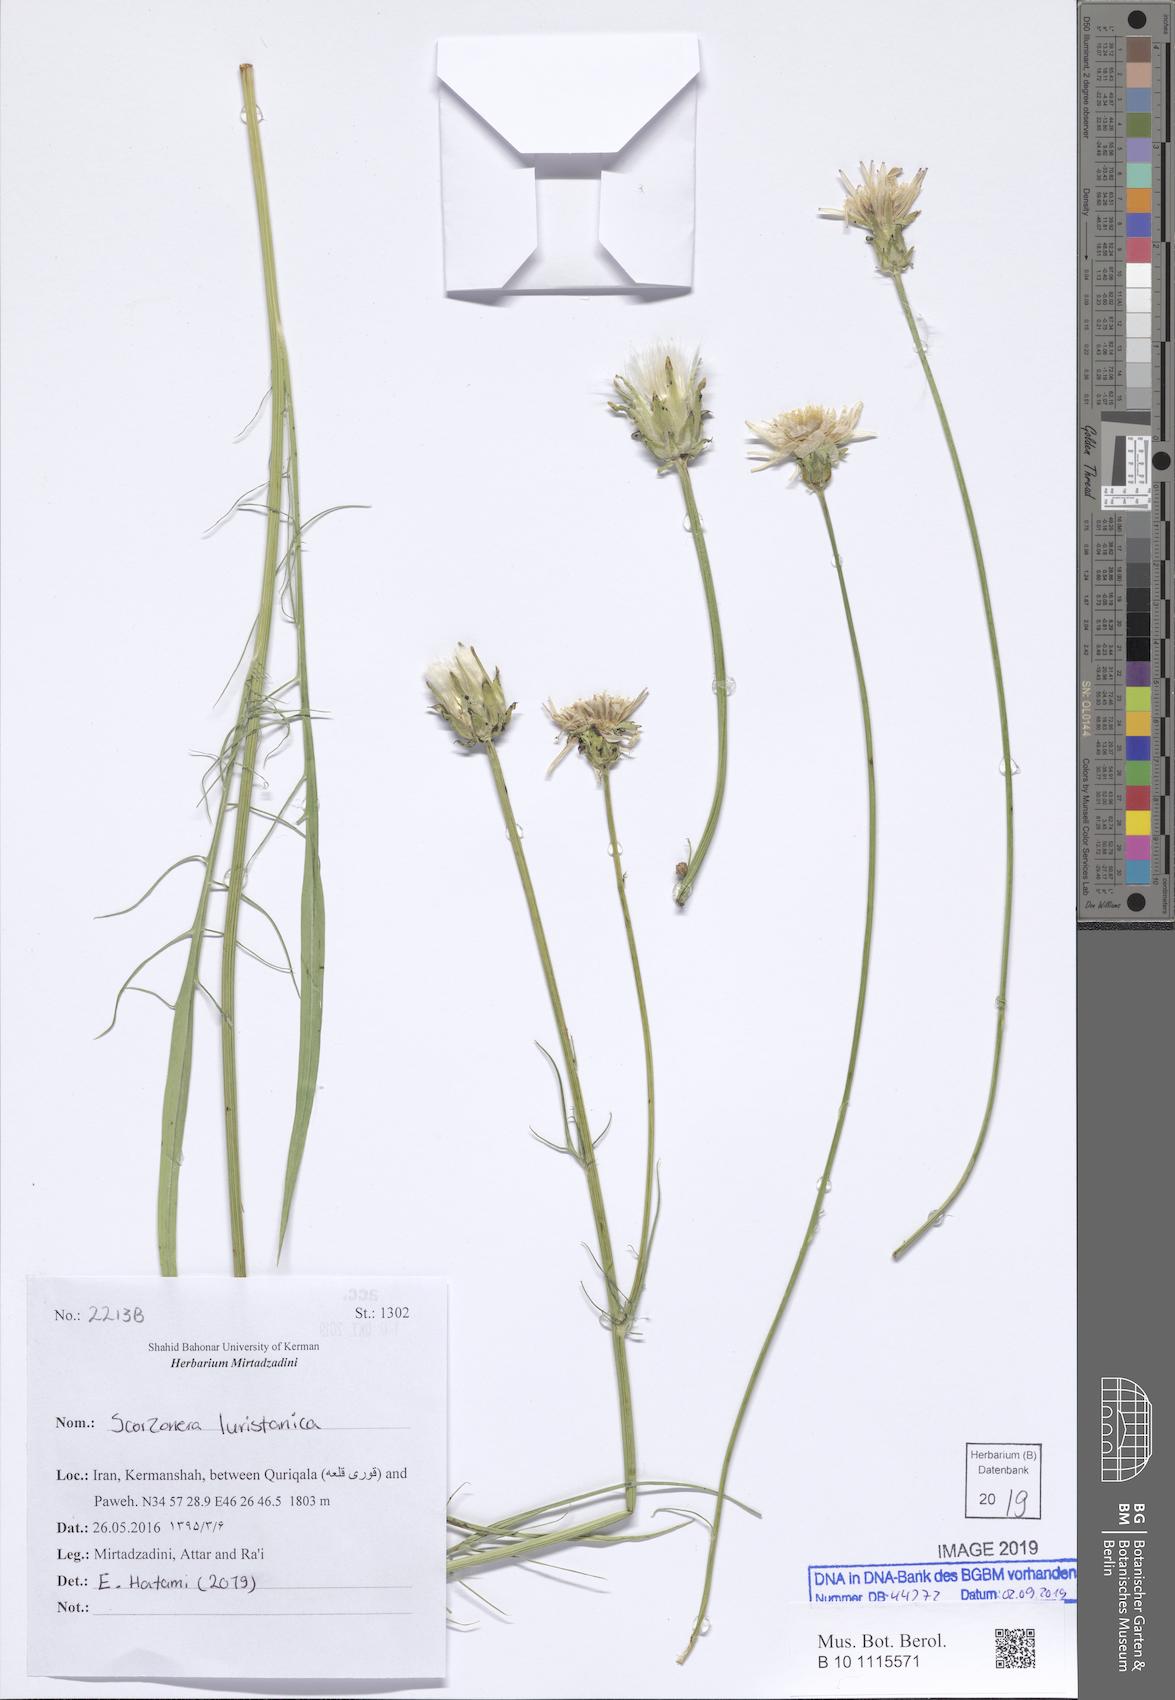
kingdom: Plantae
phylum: Tracheophyta
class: Magnoliopsida
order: Asterales
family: Asteraceae
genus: Scorzonera
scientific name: Scorzonera persepolitana
